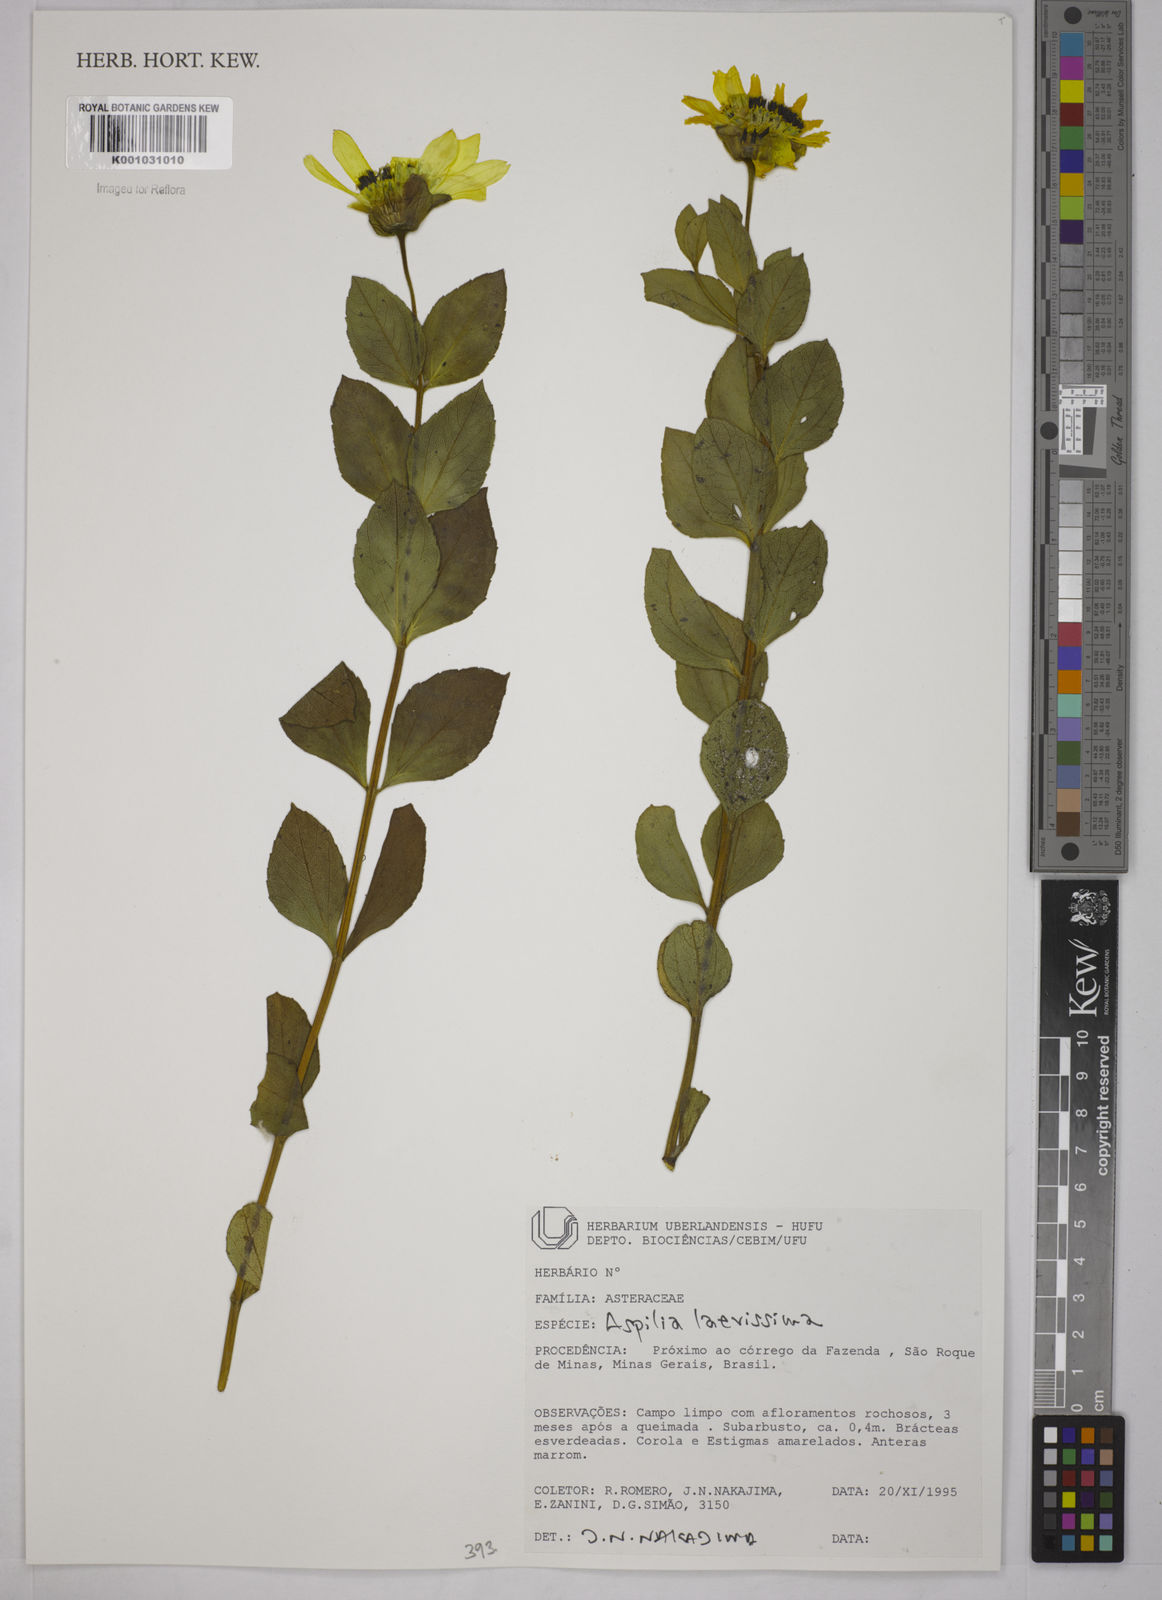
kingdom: Plantae
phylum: Tracheophyta
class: Magnoliopsida
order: Asterales
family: Asteraceae
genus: Wedelia
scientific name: Wedelia laevissima
